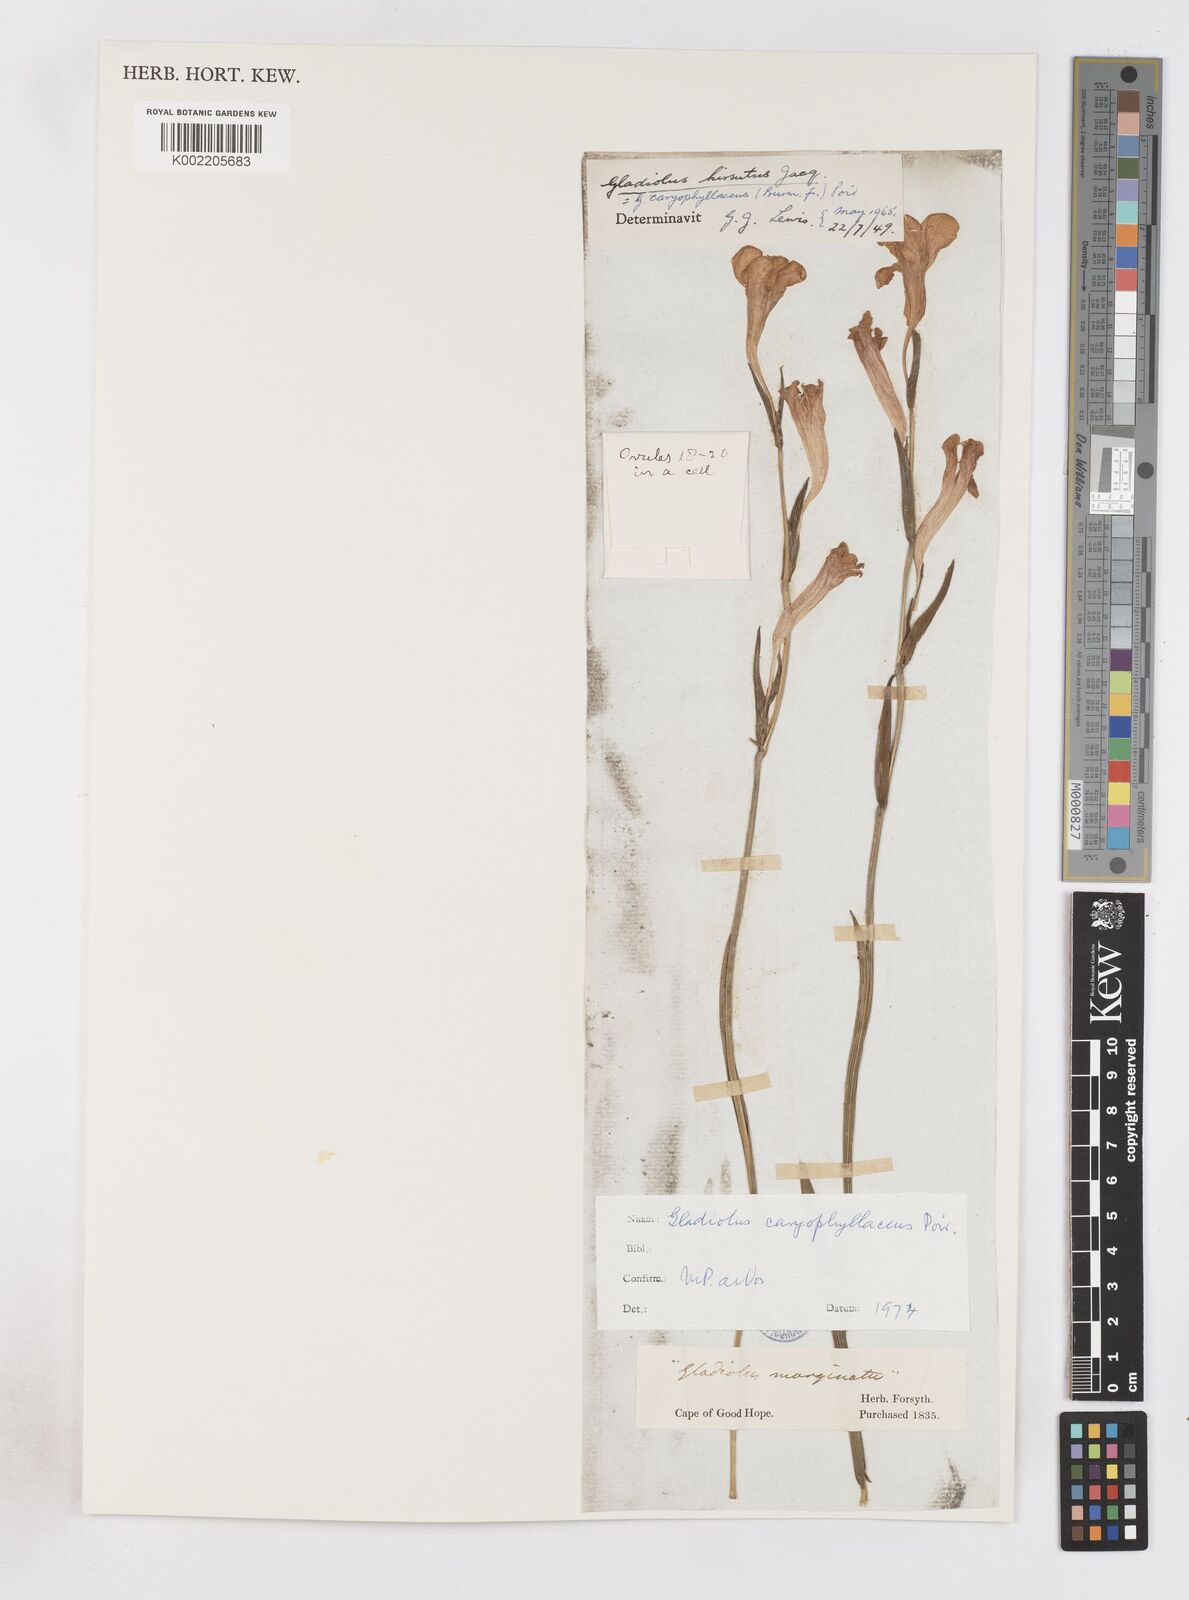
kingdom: Plantae
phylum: Tracheophyta
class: Liliopsida
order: Asparagales
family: Iridaceae
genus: Gladiolus
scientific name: Gladiolus caryophyllaceus
